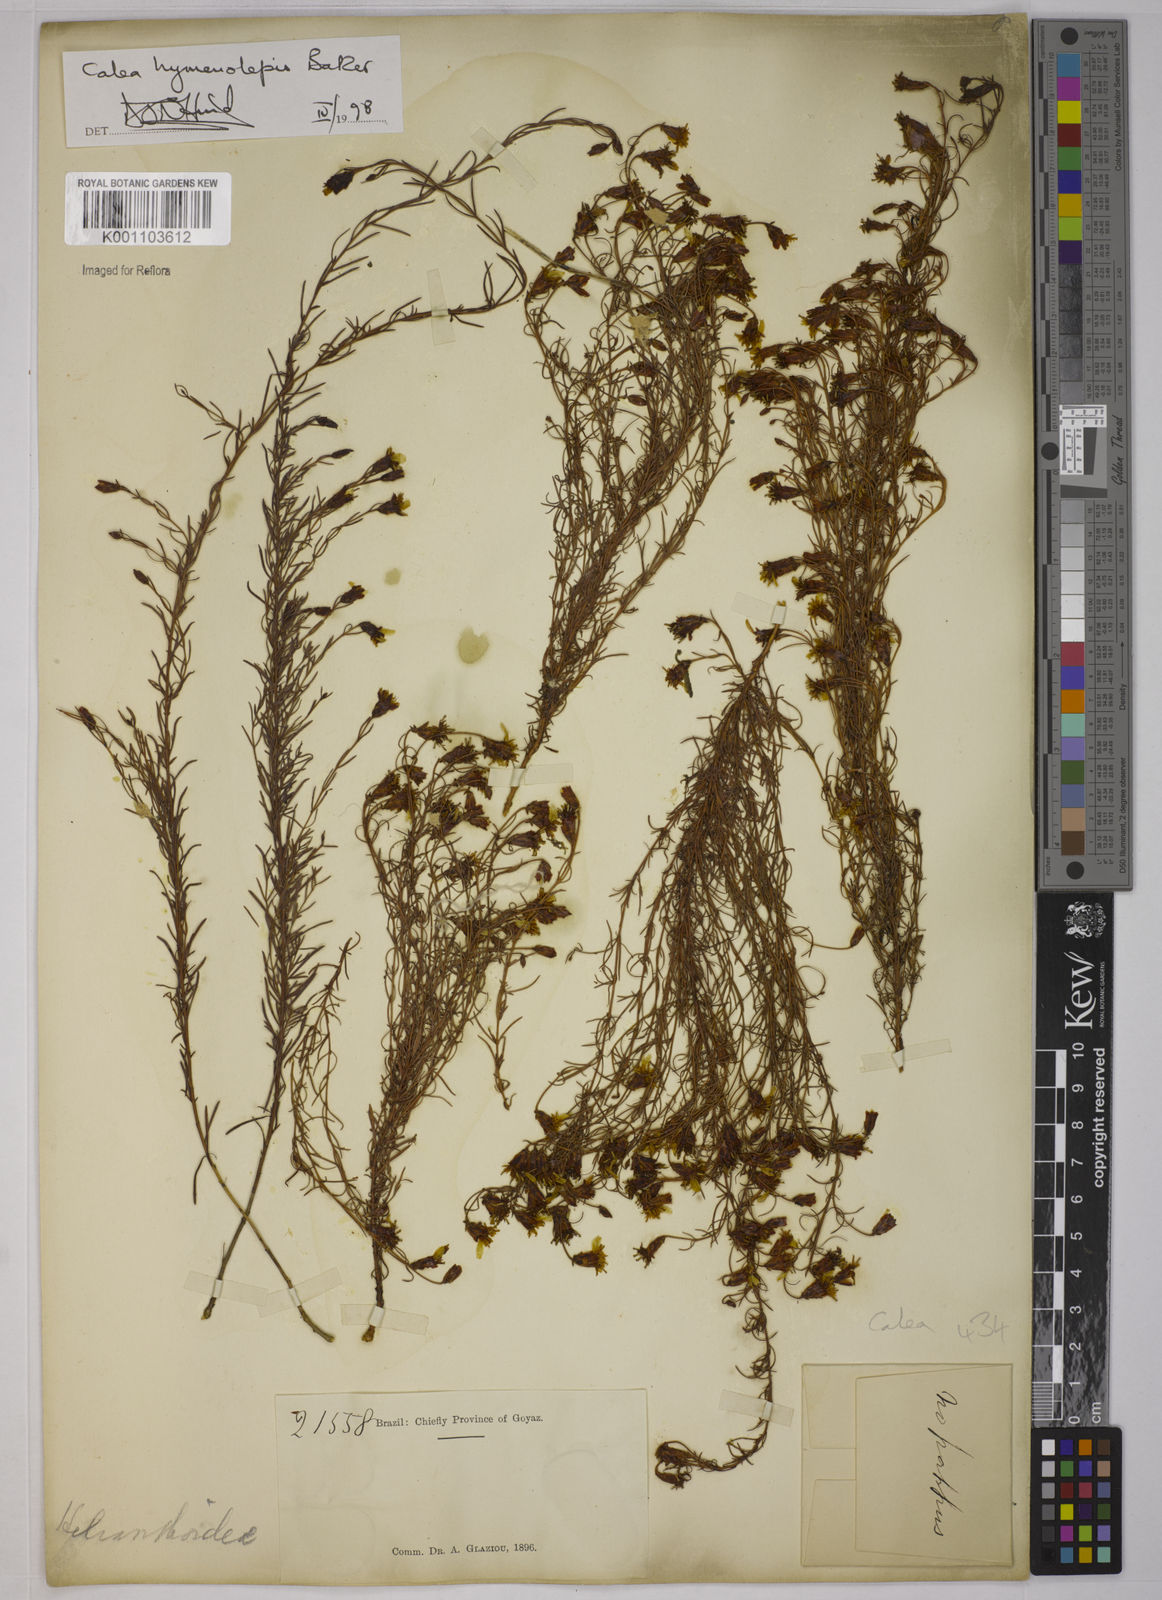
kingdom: Plantae
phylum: Tracheophyta
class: Magnoliopsida
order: Asterales
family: Asteraceae
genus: Calea
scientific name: Calea hymenolepis
